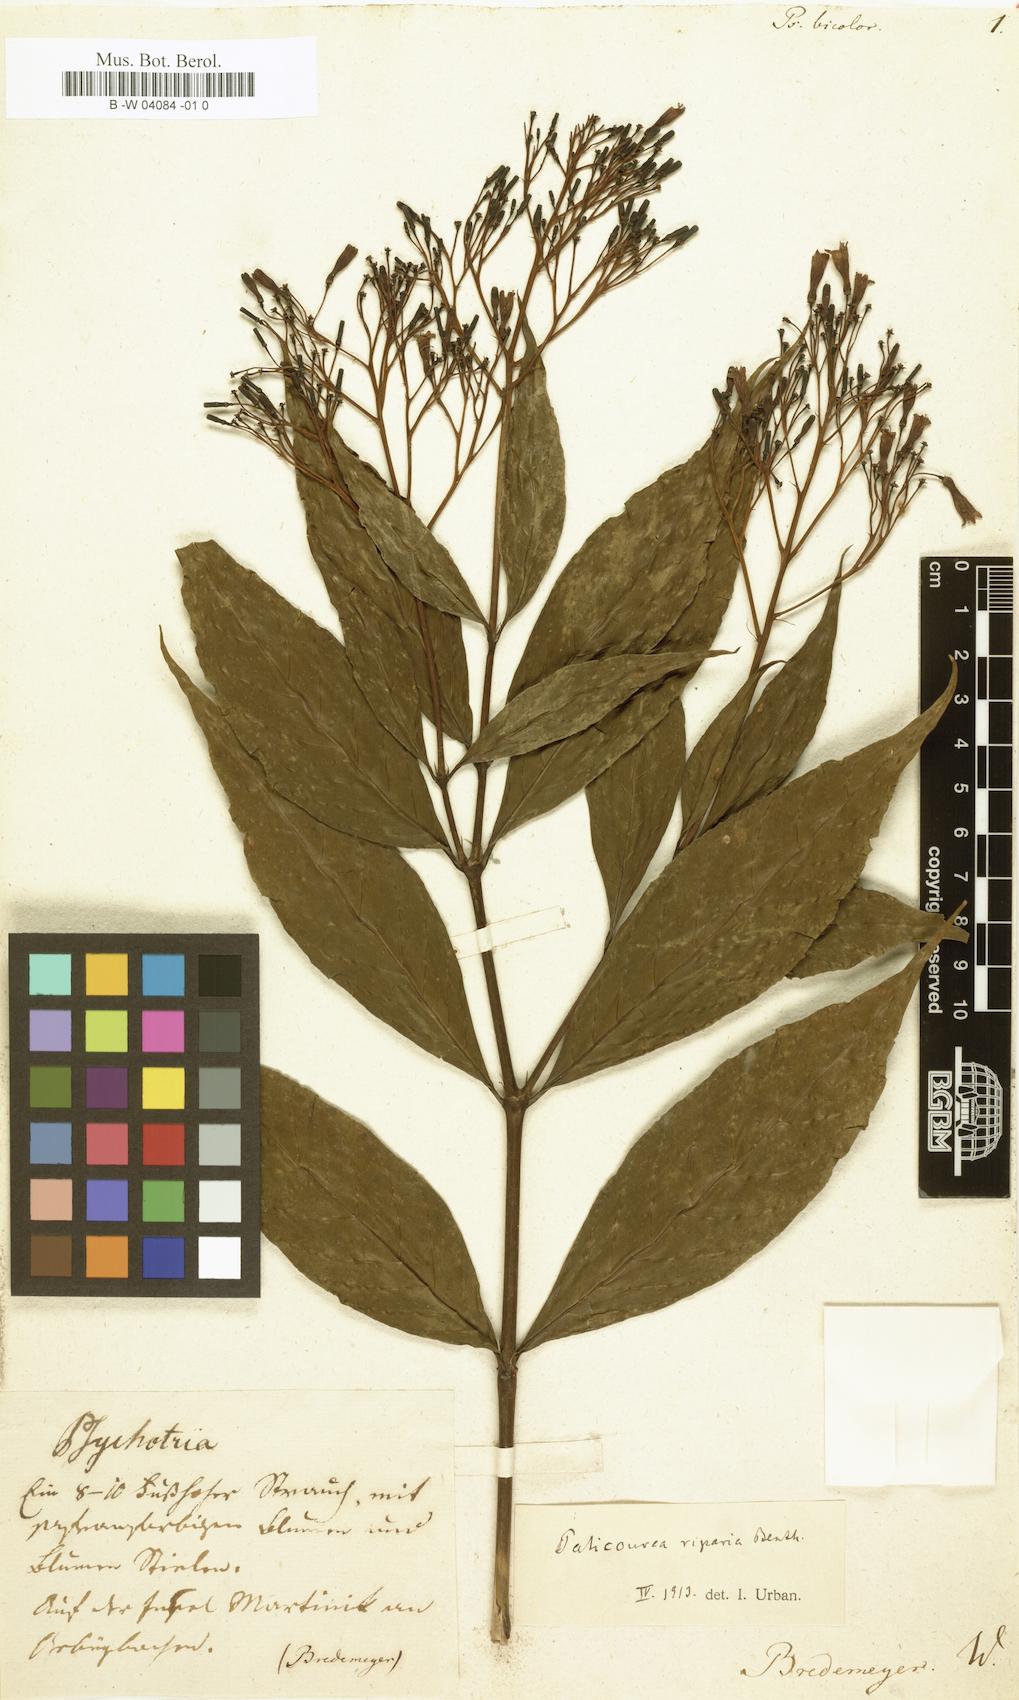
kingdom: Plantae
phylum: Tracheophyta
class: Magnoliopsida
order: Gentianales
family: Rubiaceae
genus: Palicourea
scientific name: Palicourea crocea
